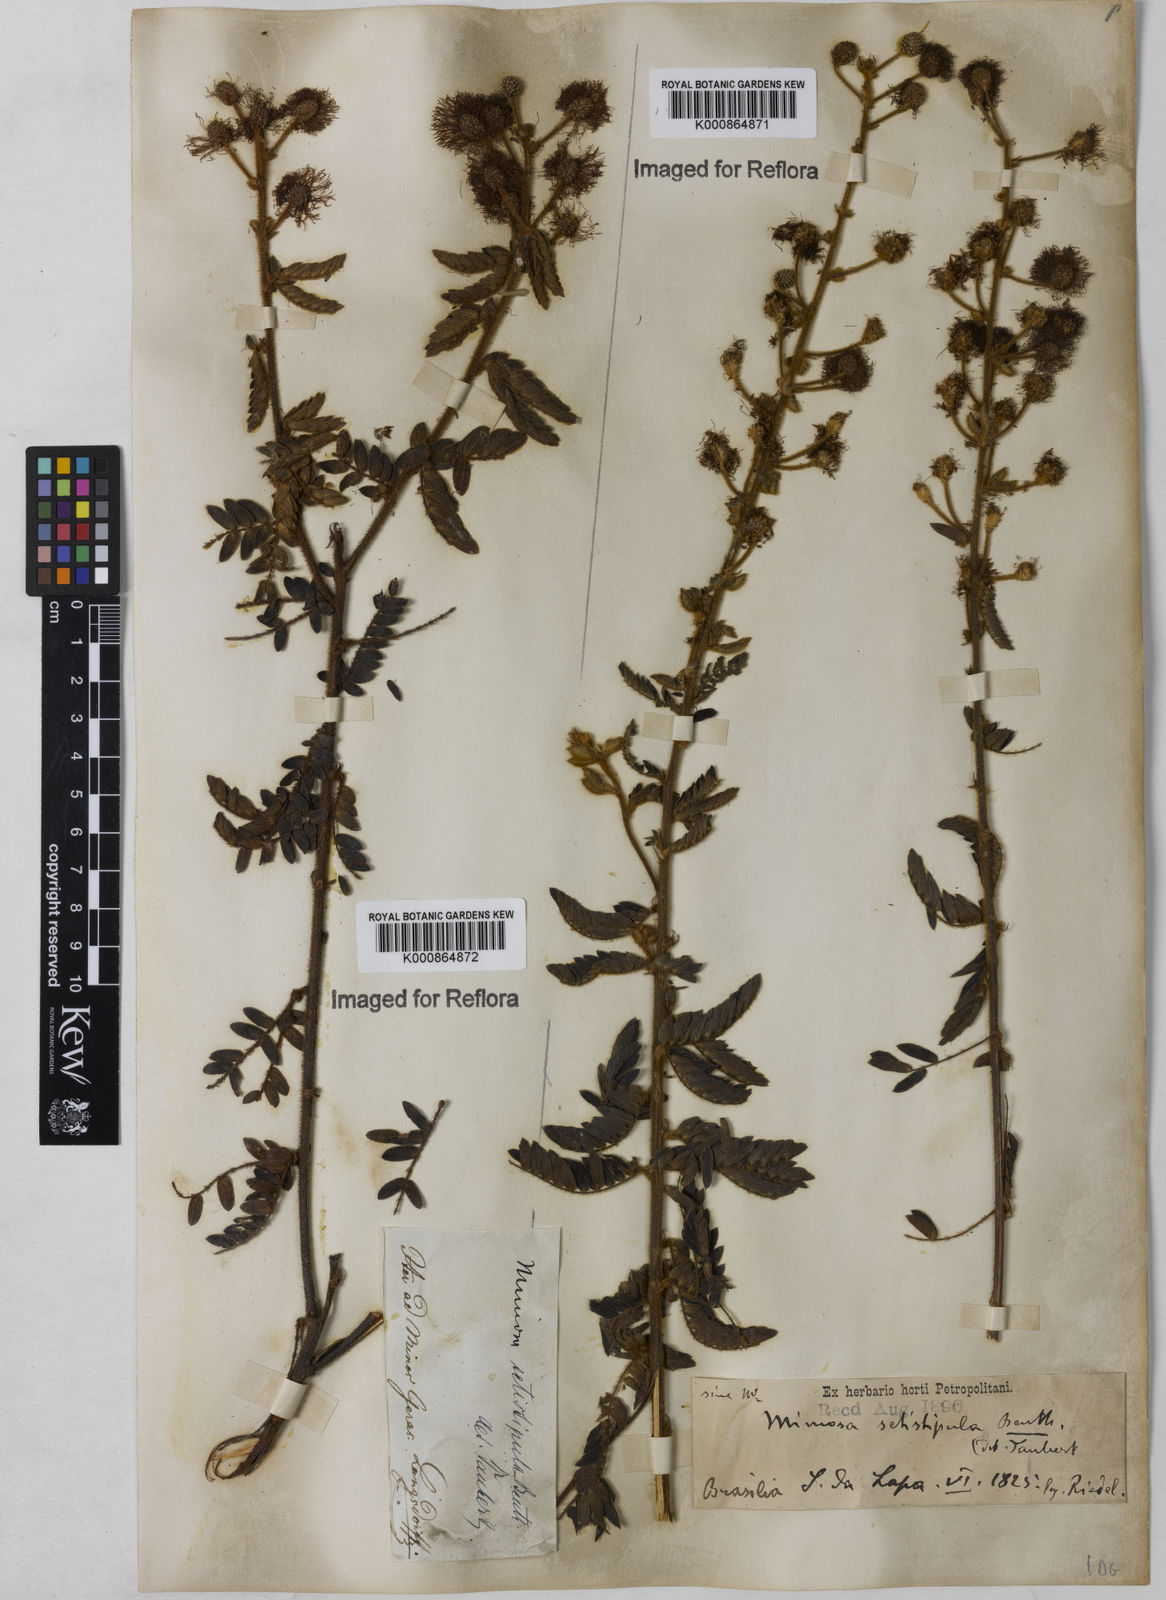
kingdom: Plantae
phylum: Tracheophyta
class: Magnoliopsida
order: Fabales
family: Fabaceae
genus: Mimosa
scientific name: Mimosa setistipula
